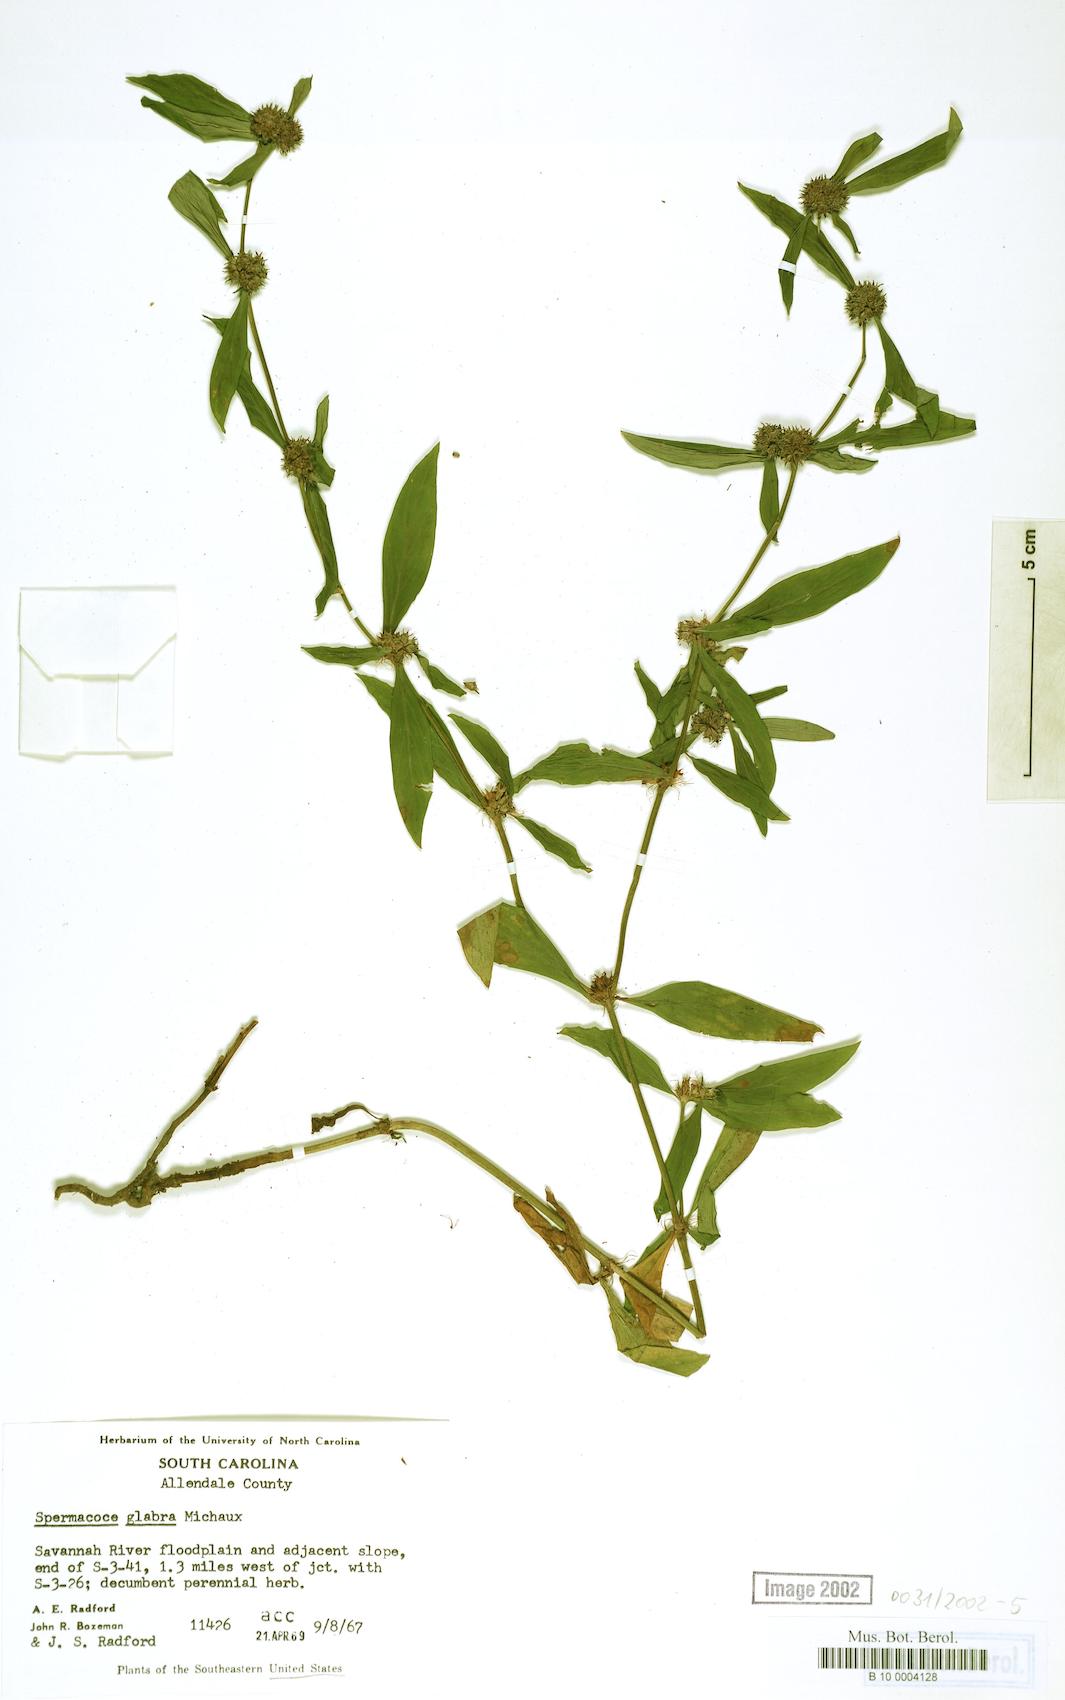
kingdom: Plantae
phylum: Tracheophyta
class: Magnoliopsida
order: Gentianales
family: Rubiaceae
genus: Spermacoce
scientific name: Spermacoce glabra
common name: Smooth buttonweed
